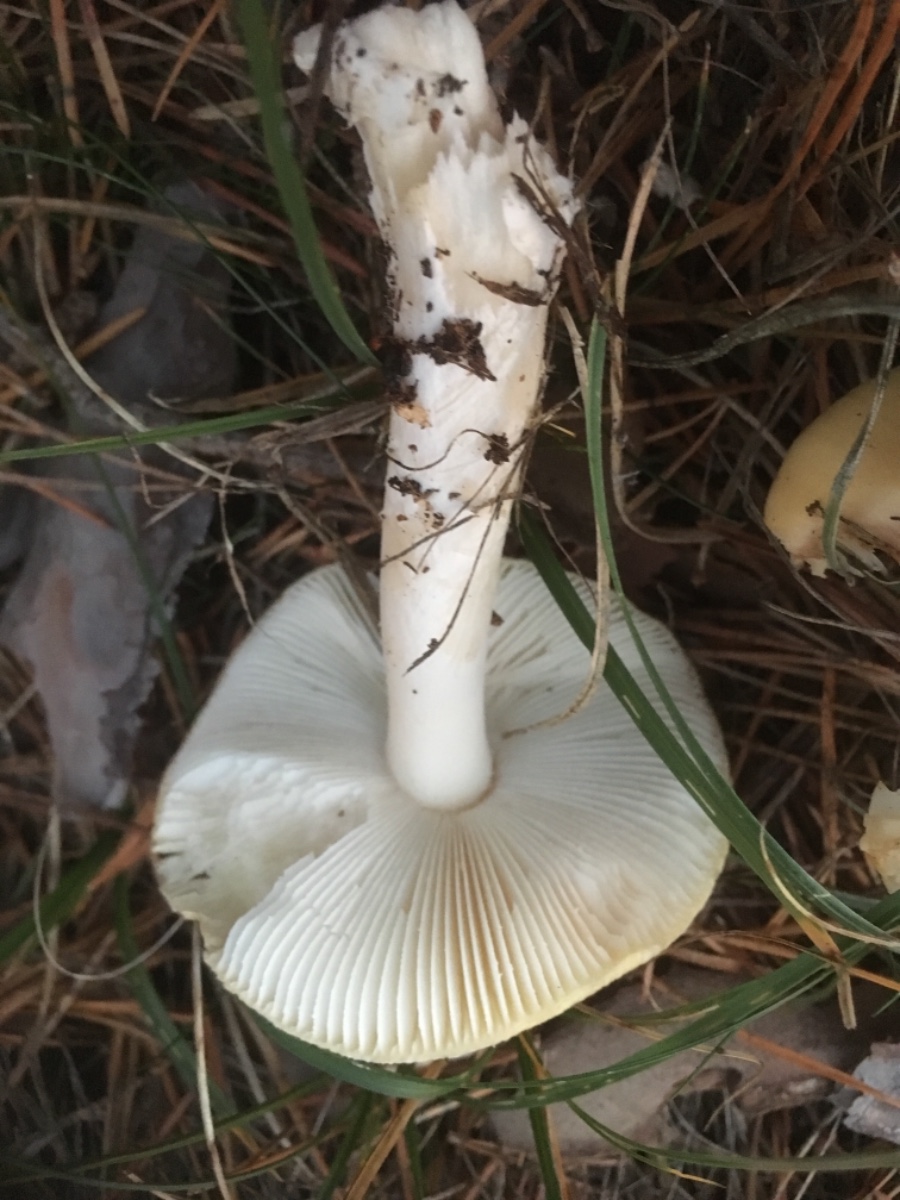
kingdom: Fungi
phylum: Basidiomycota
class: Agaricomycetes
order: Agaricales
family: Amanitaceae
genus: Amanita
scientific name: Amanita gemmata
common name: okkergul fluesvamp
